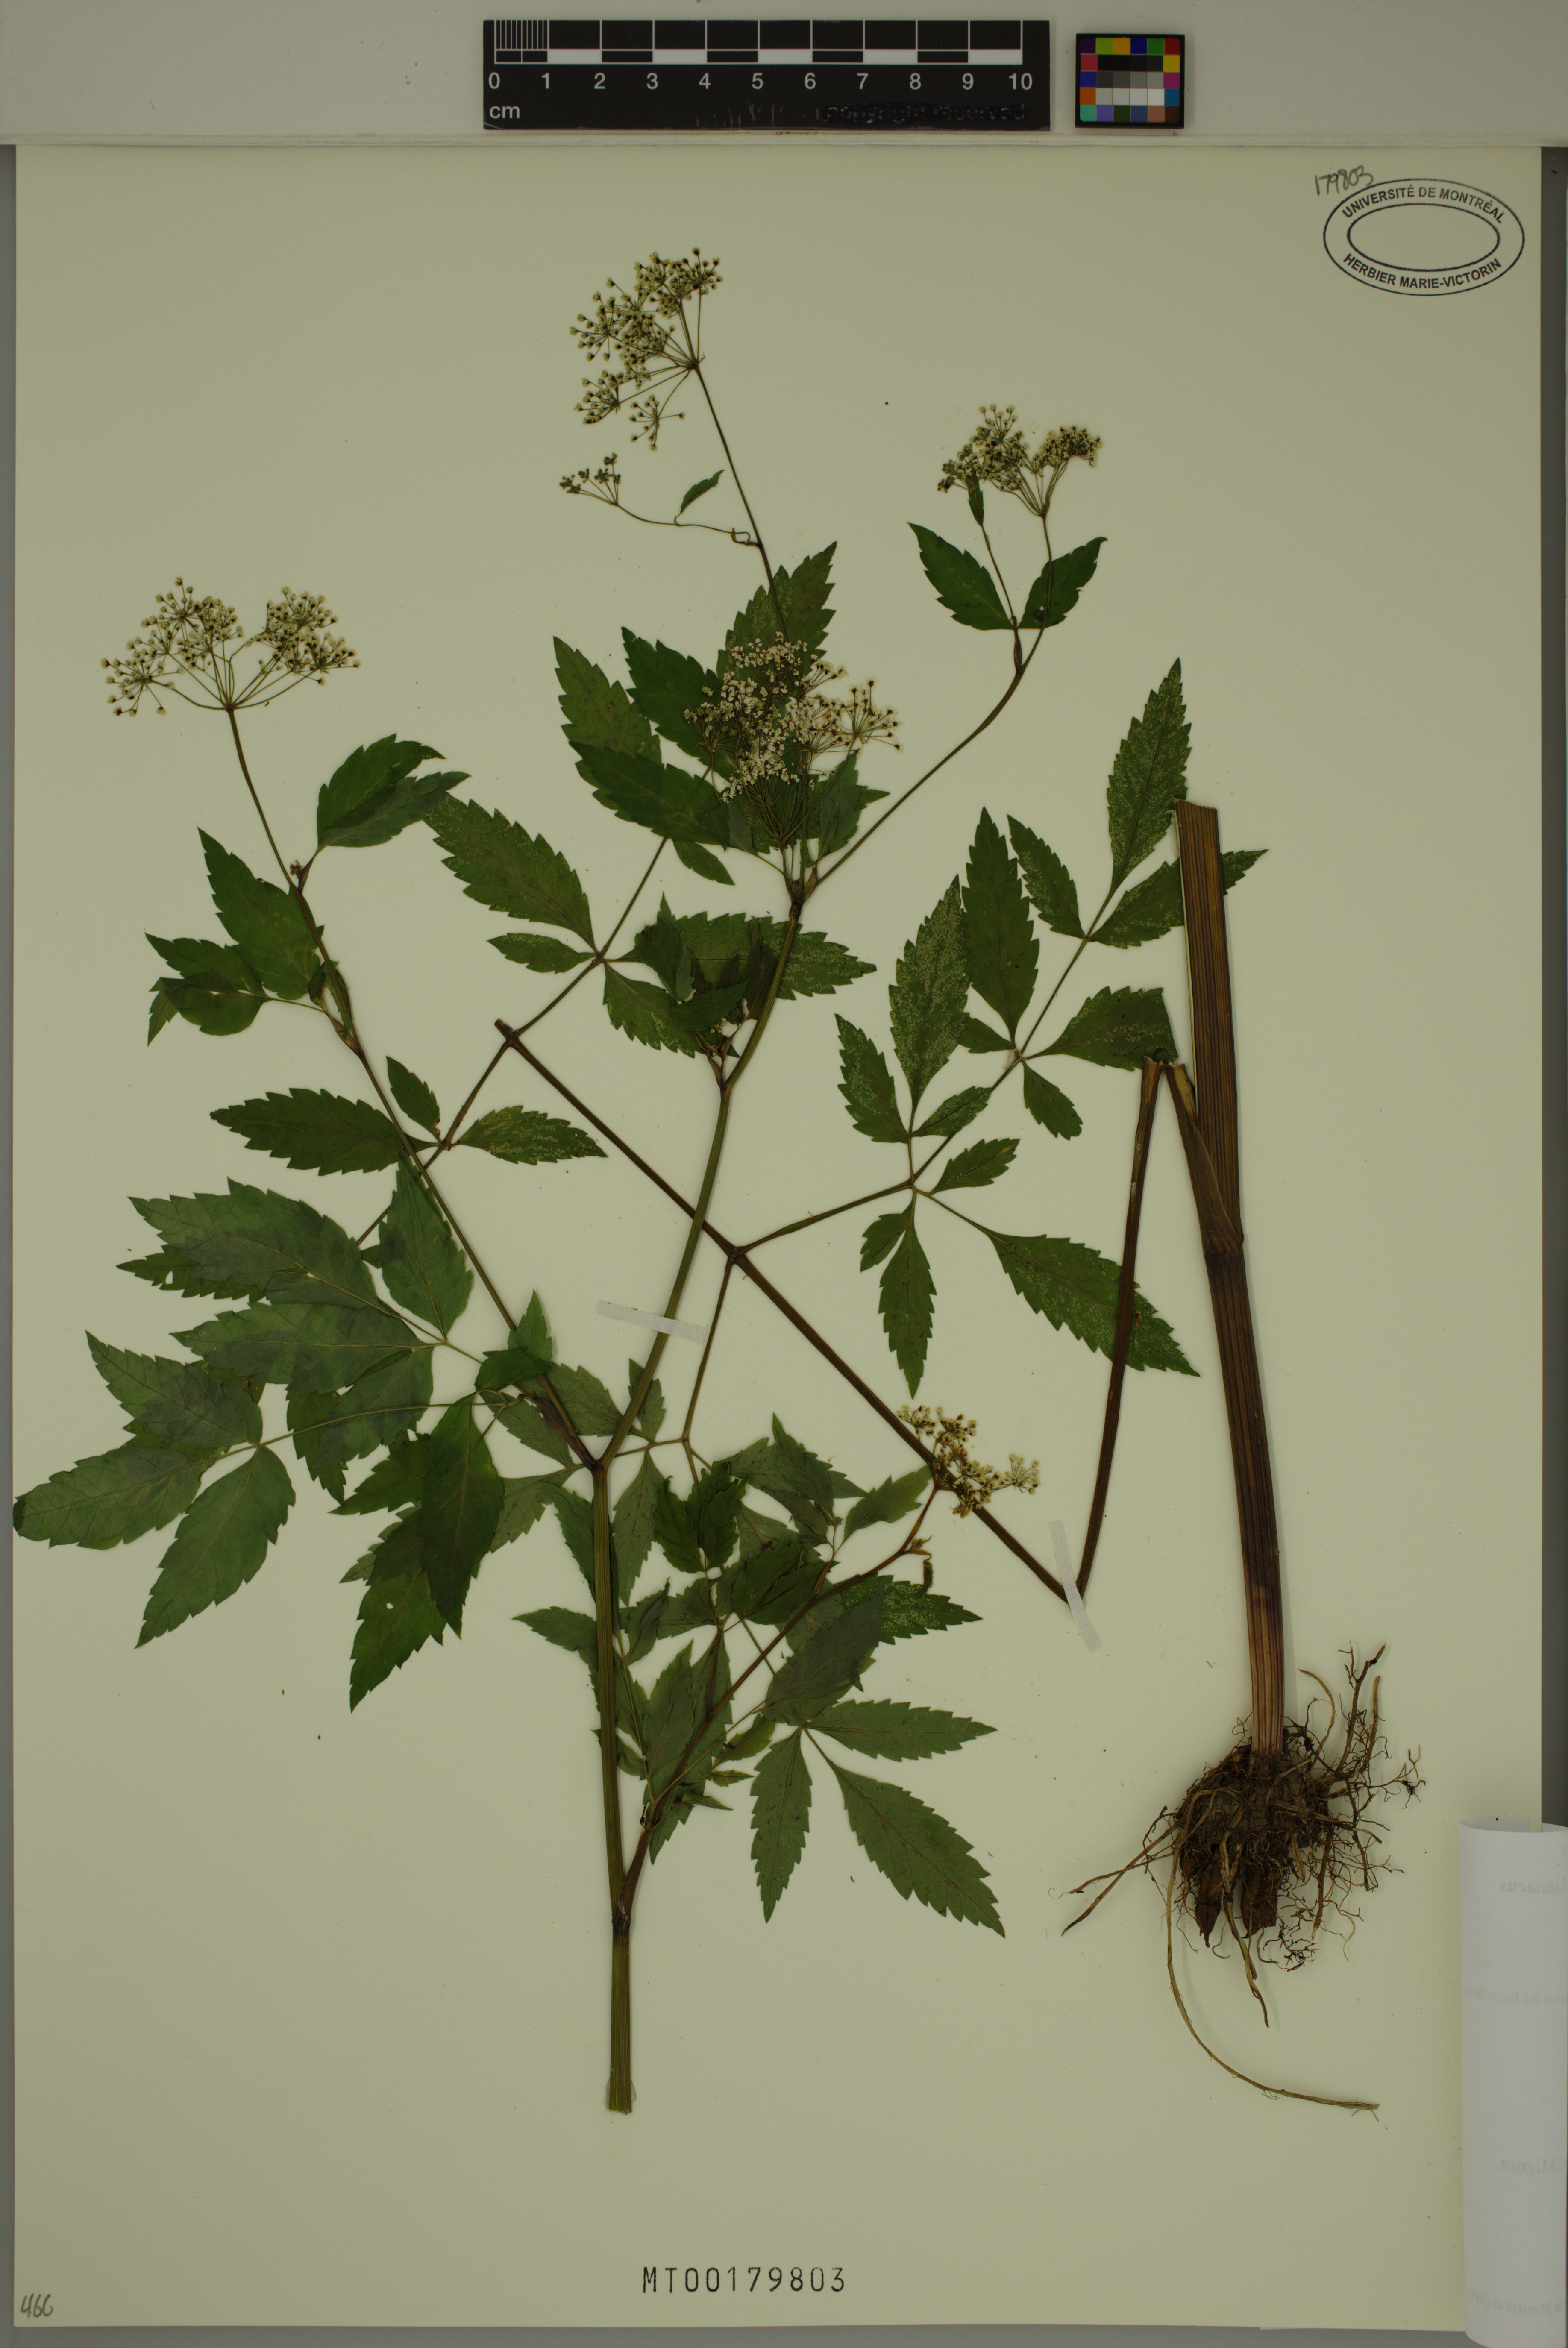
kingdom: Plantae
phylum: Tracheophyta
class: Magnoliopsida
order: Apiales
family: Apiaceae
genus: Cicuta
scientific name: Cicuta maculata
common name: Spotted cowbane
